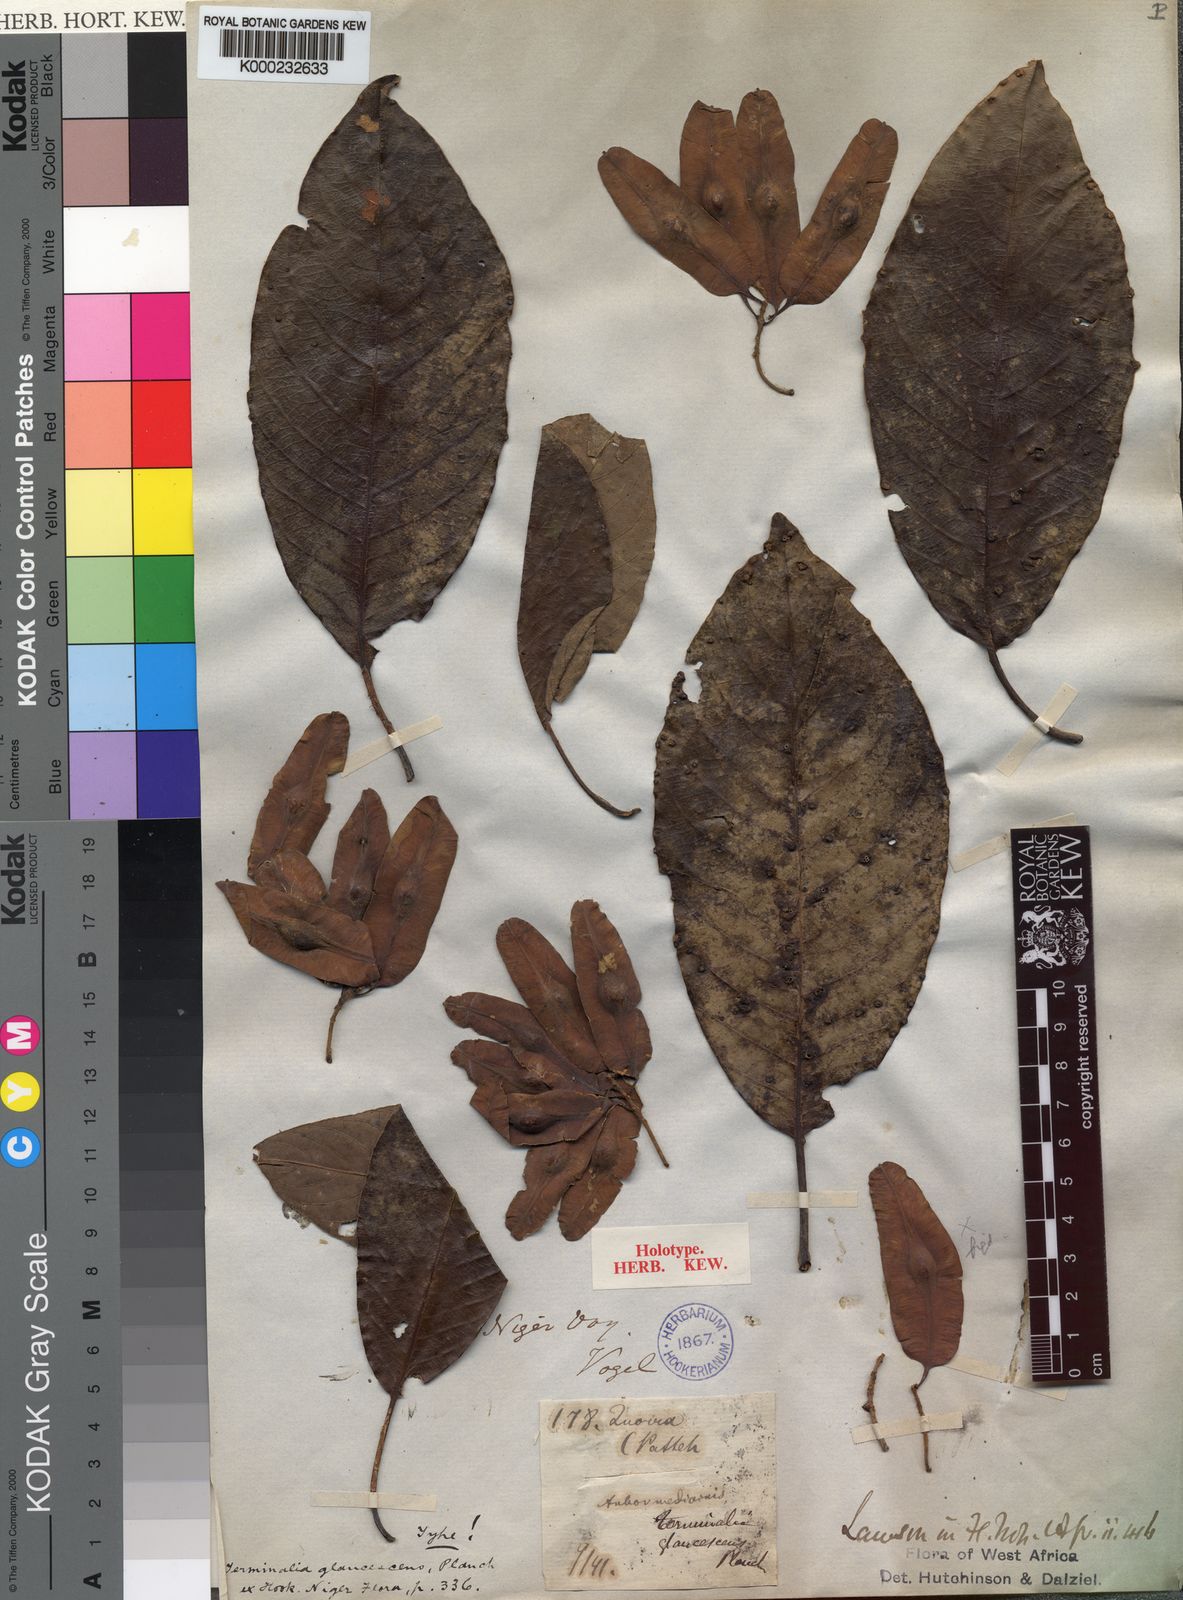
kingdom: Plantae
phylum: Tracheophyta
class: Magnoliopsida
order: Myrtales
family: Combretaceae
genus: Terminalia
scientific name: Terminalia schimperiana
